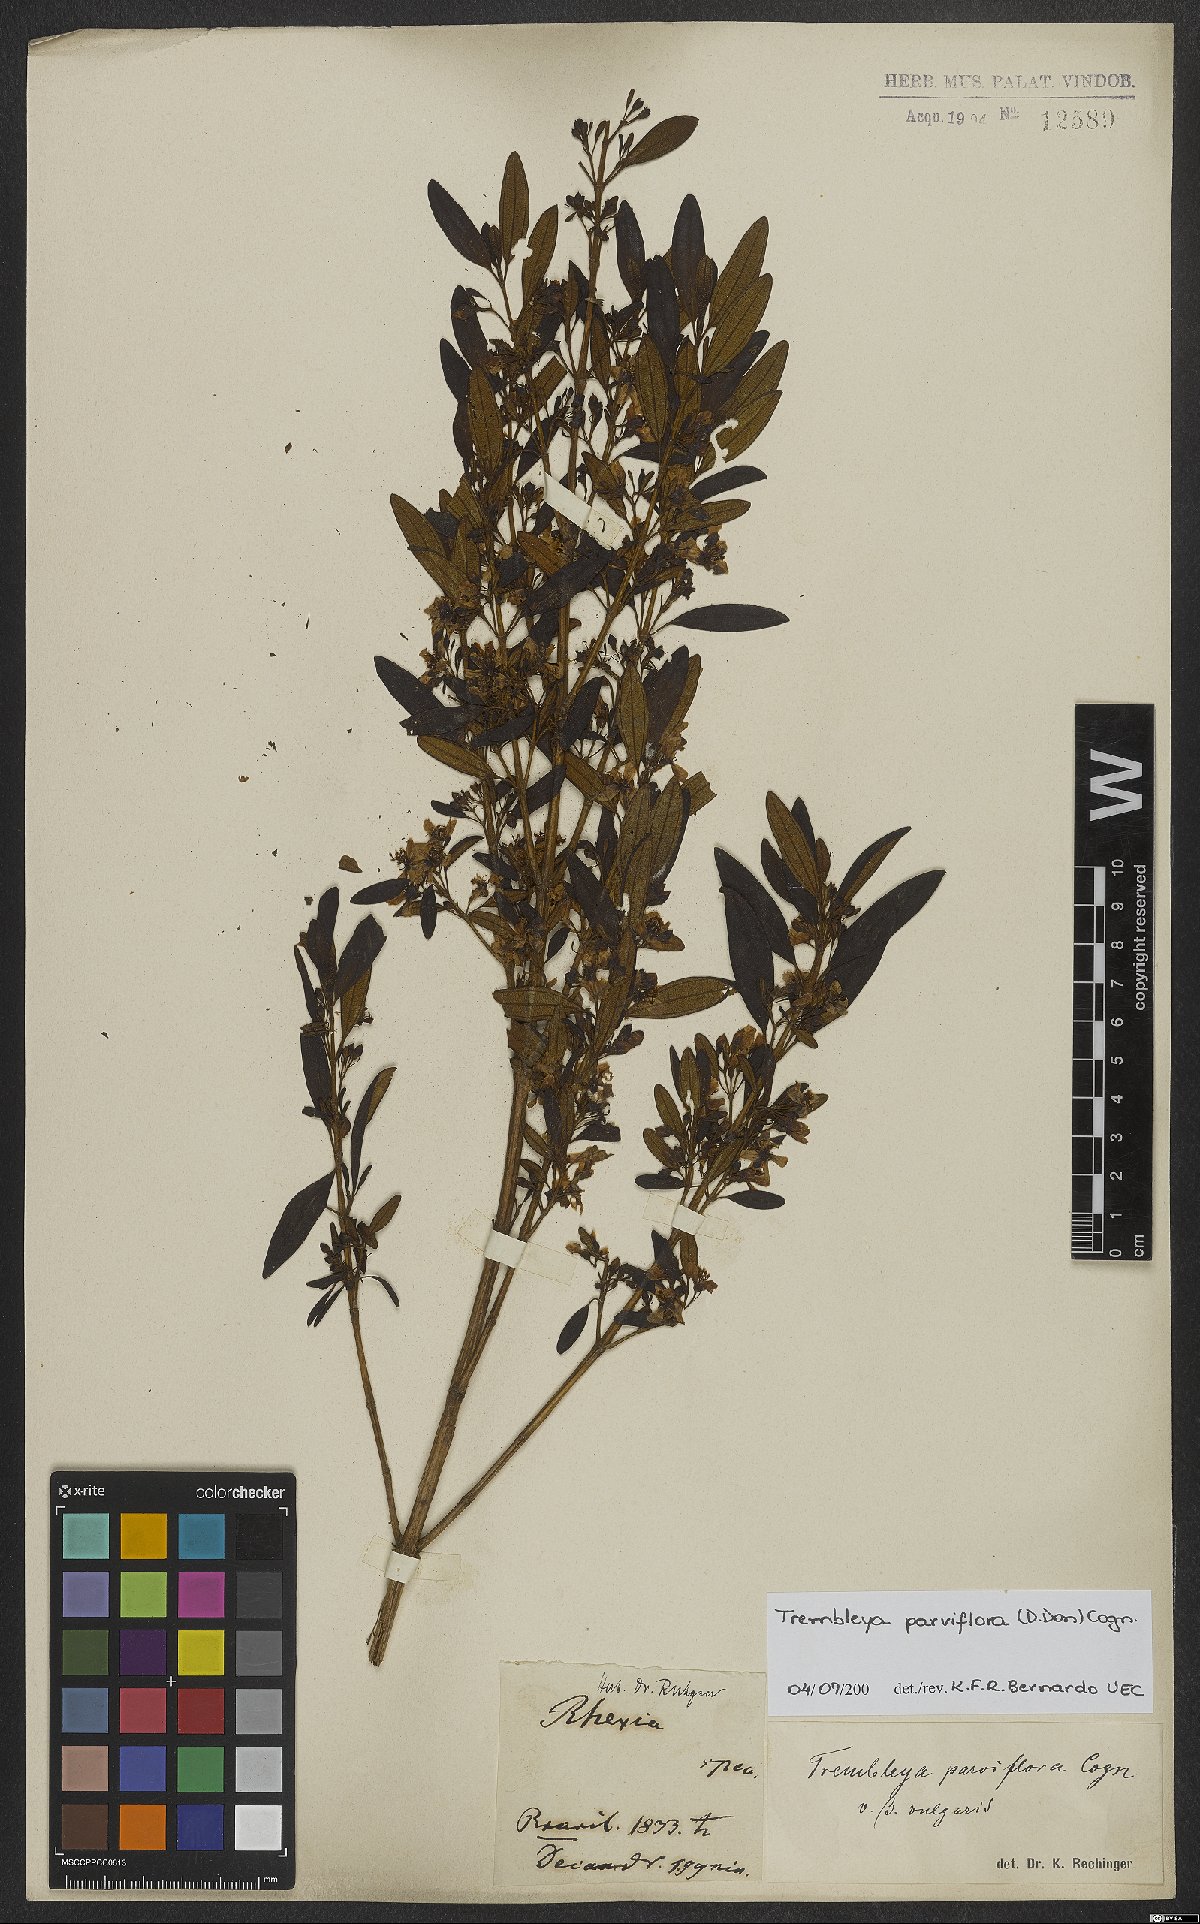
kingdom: Plantae
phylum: Tracheophyta
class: Magnoliopsida
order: Myrtales
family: Melastomataceae
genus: Microlicia
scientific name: Microlicia parviflora
